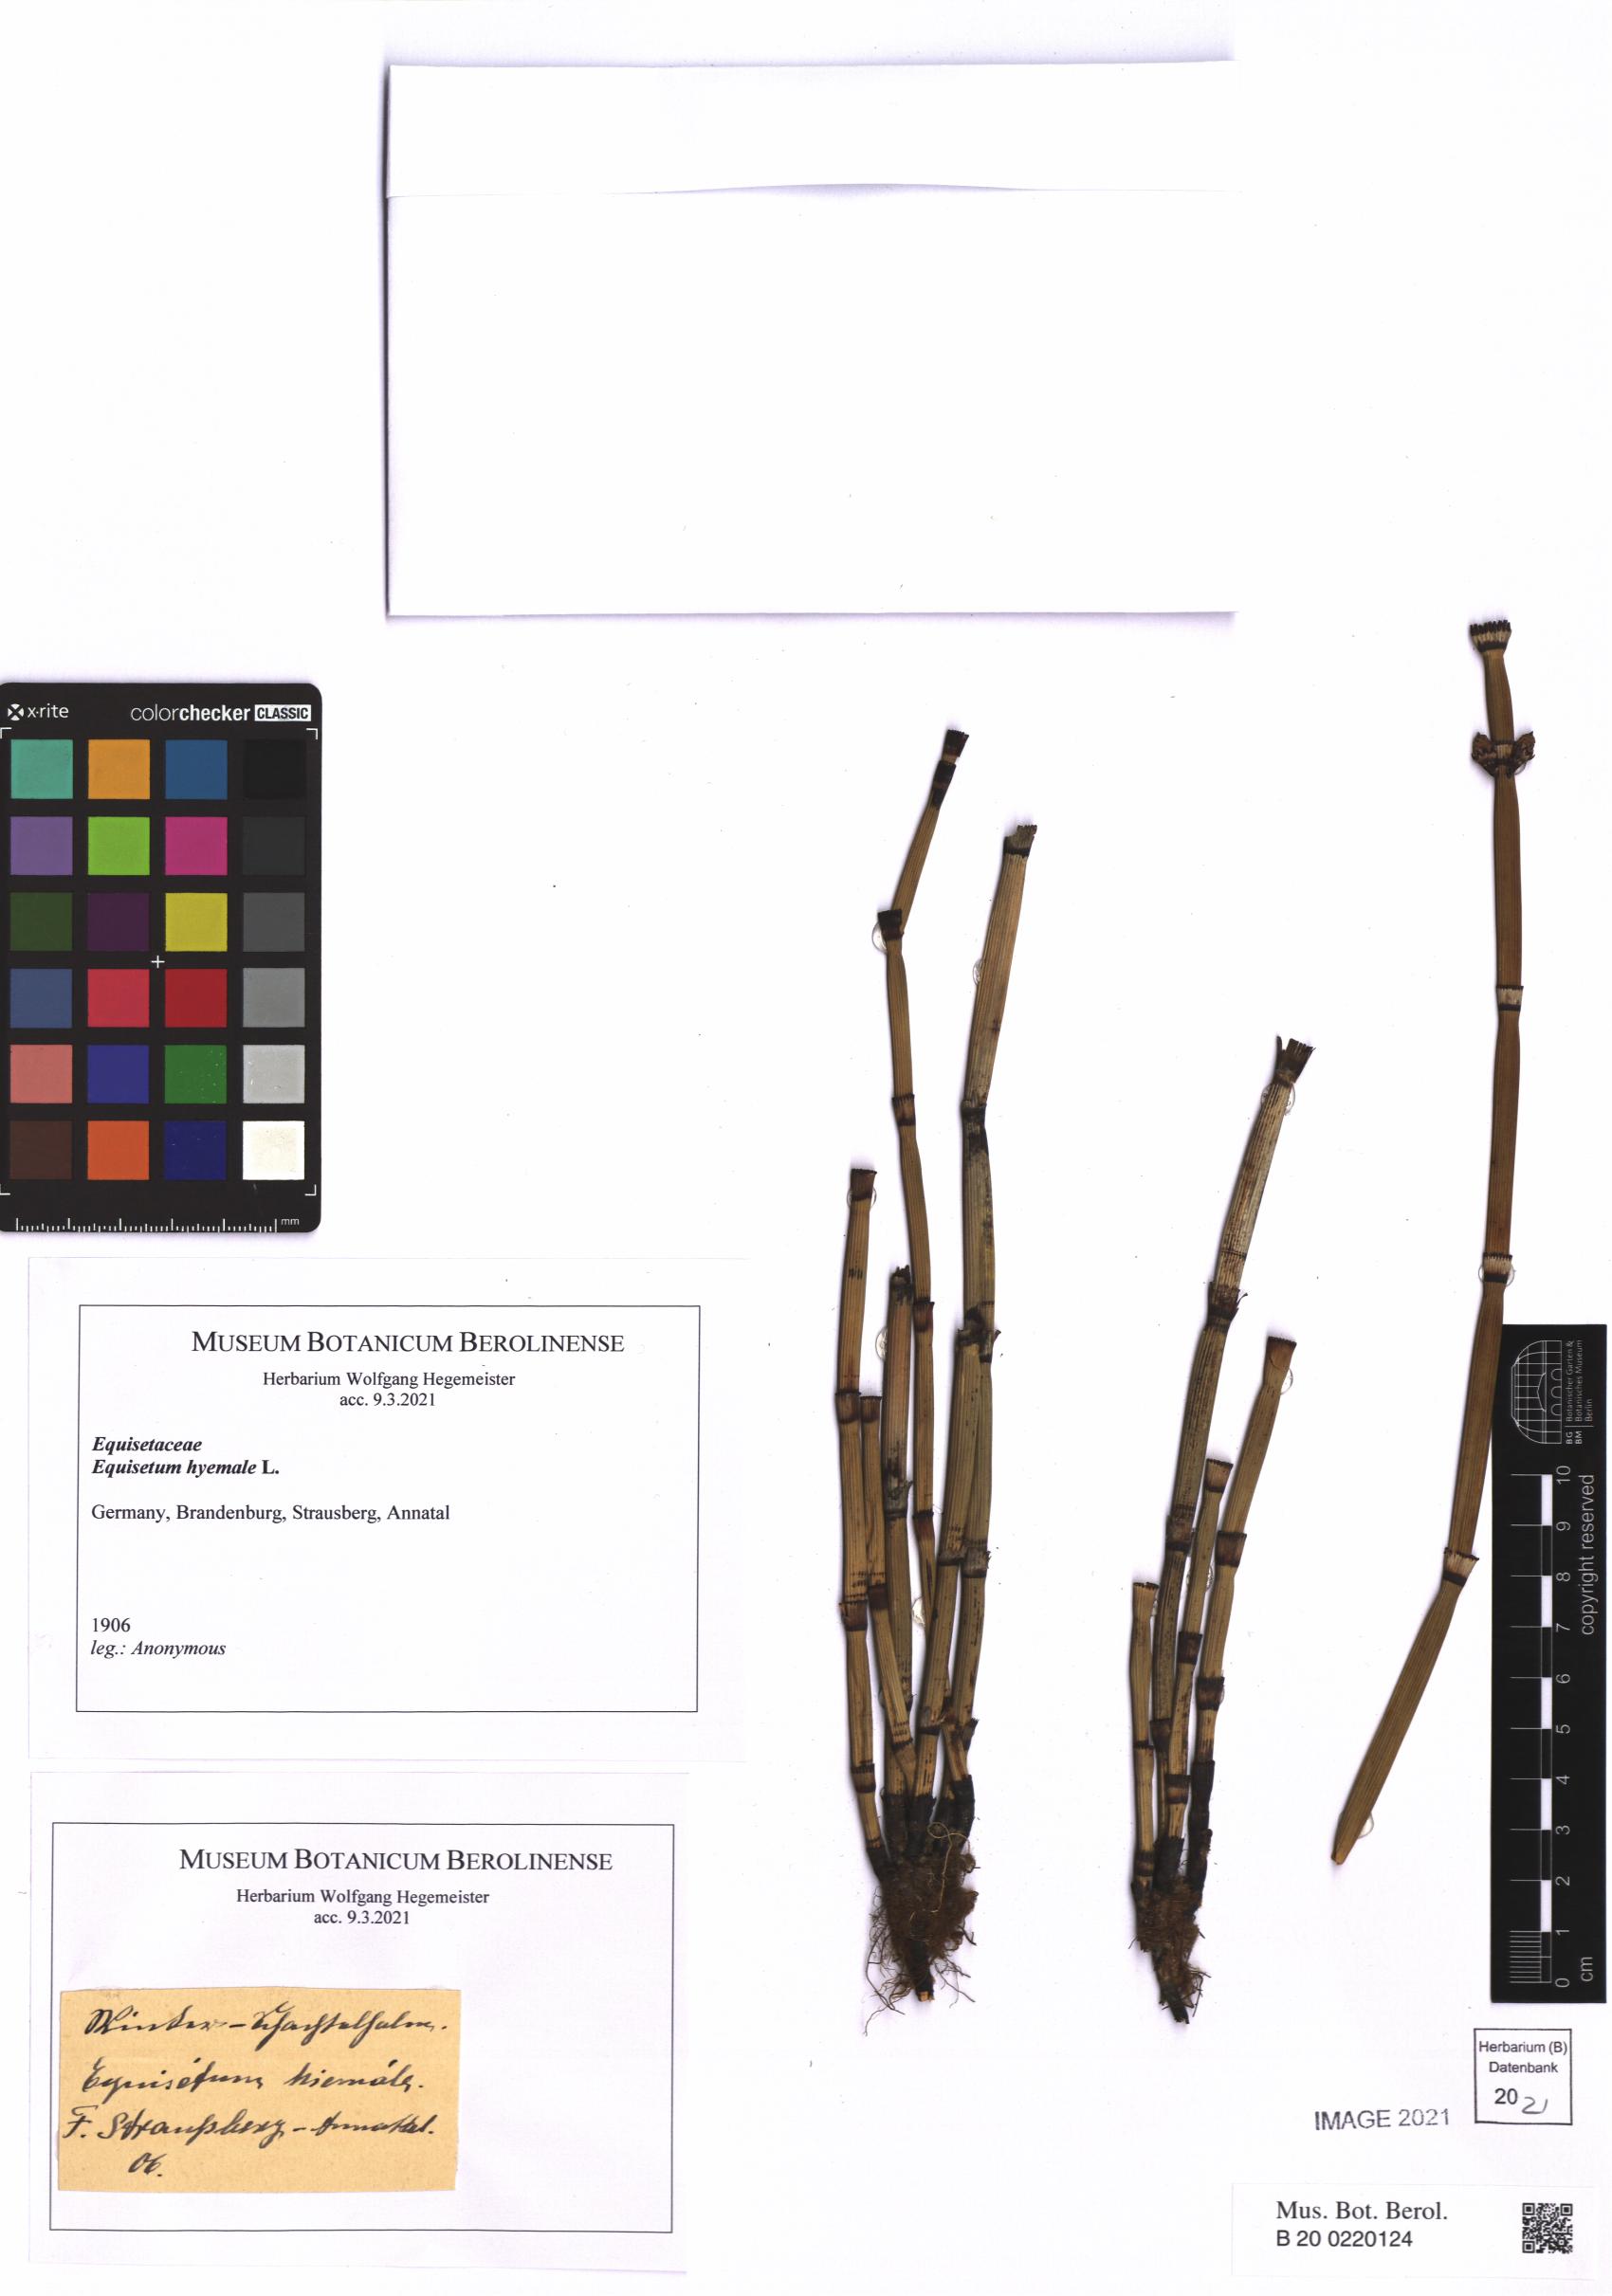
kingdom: Plantae
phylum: Tracheophyta
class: Polypodiopsida
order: Equisetales
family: Equisetaceae
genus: Equisetum
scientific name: Equisetum hyemale
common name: Rough horsetail
